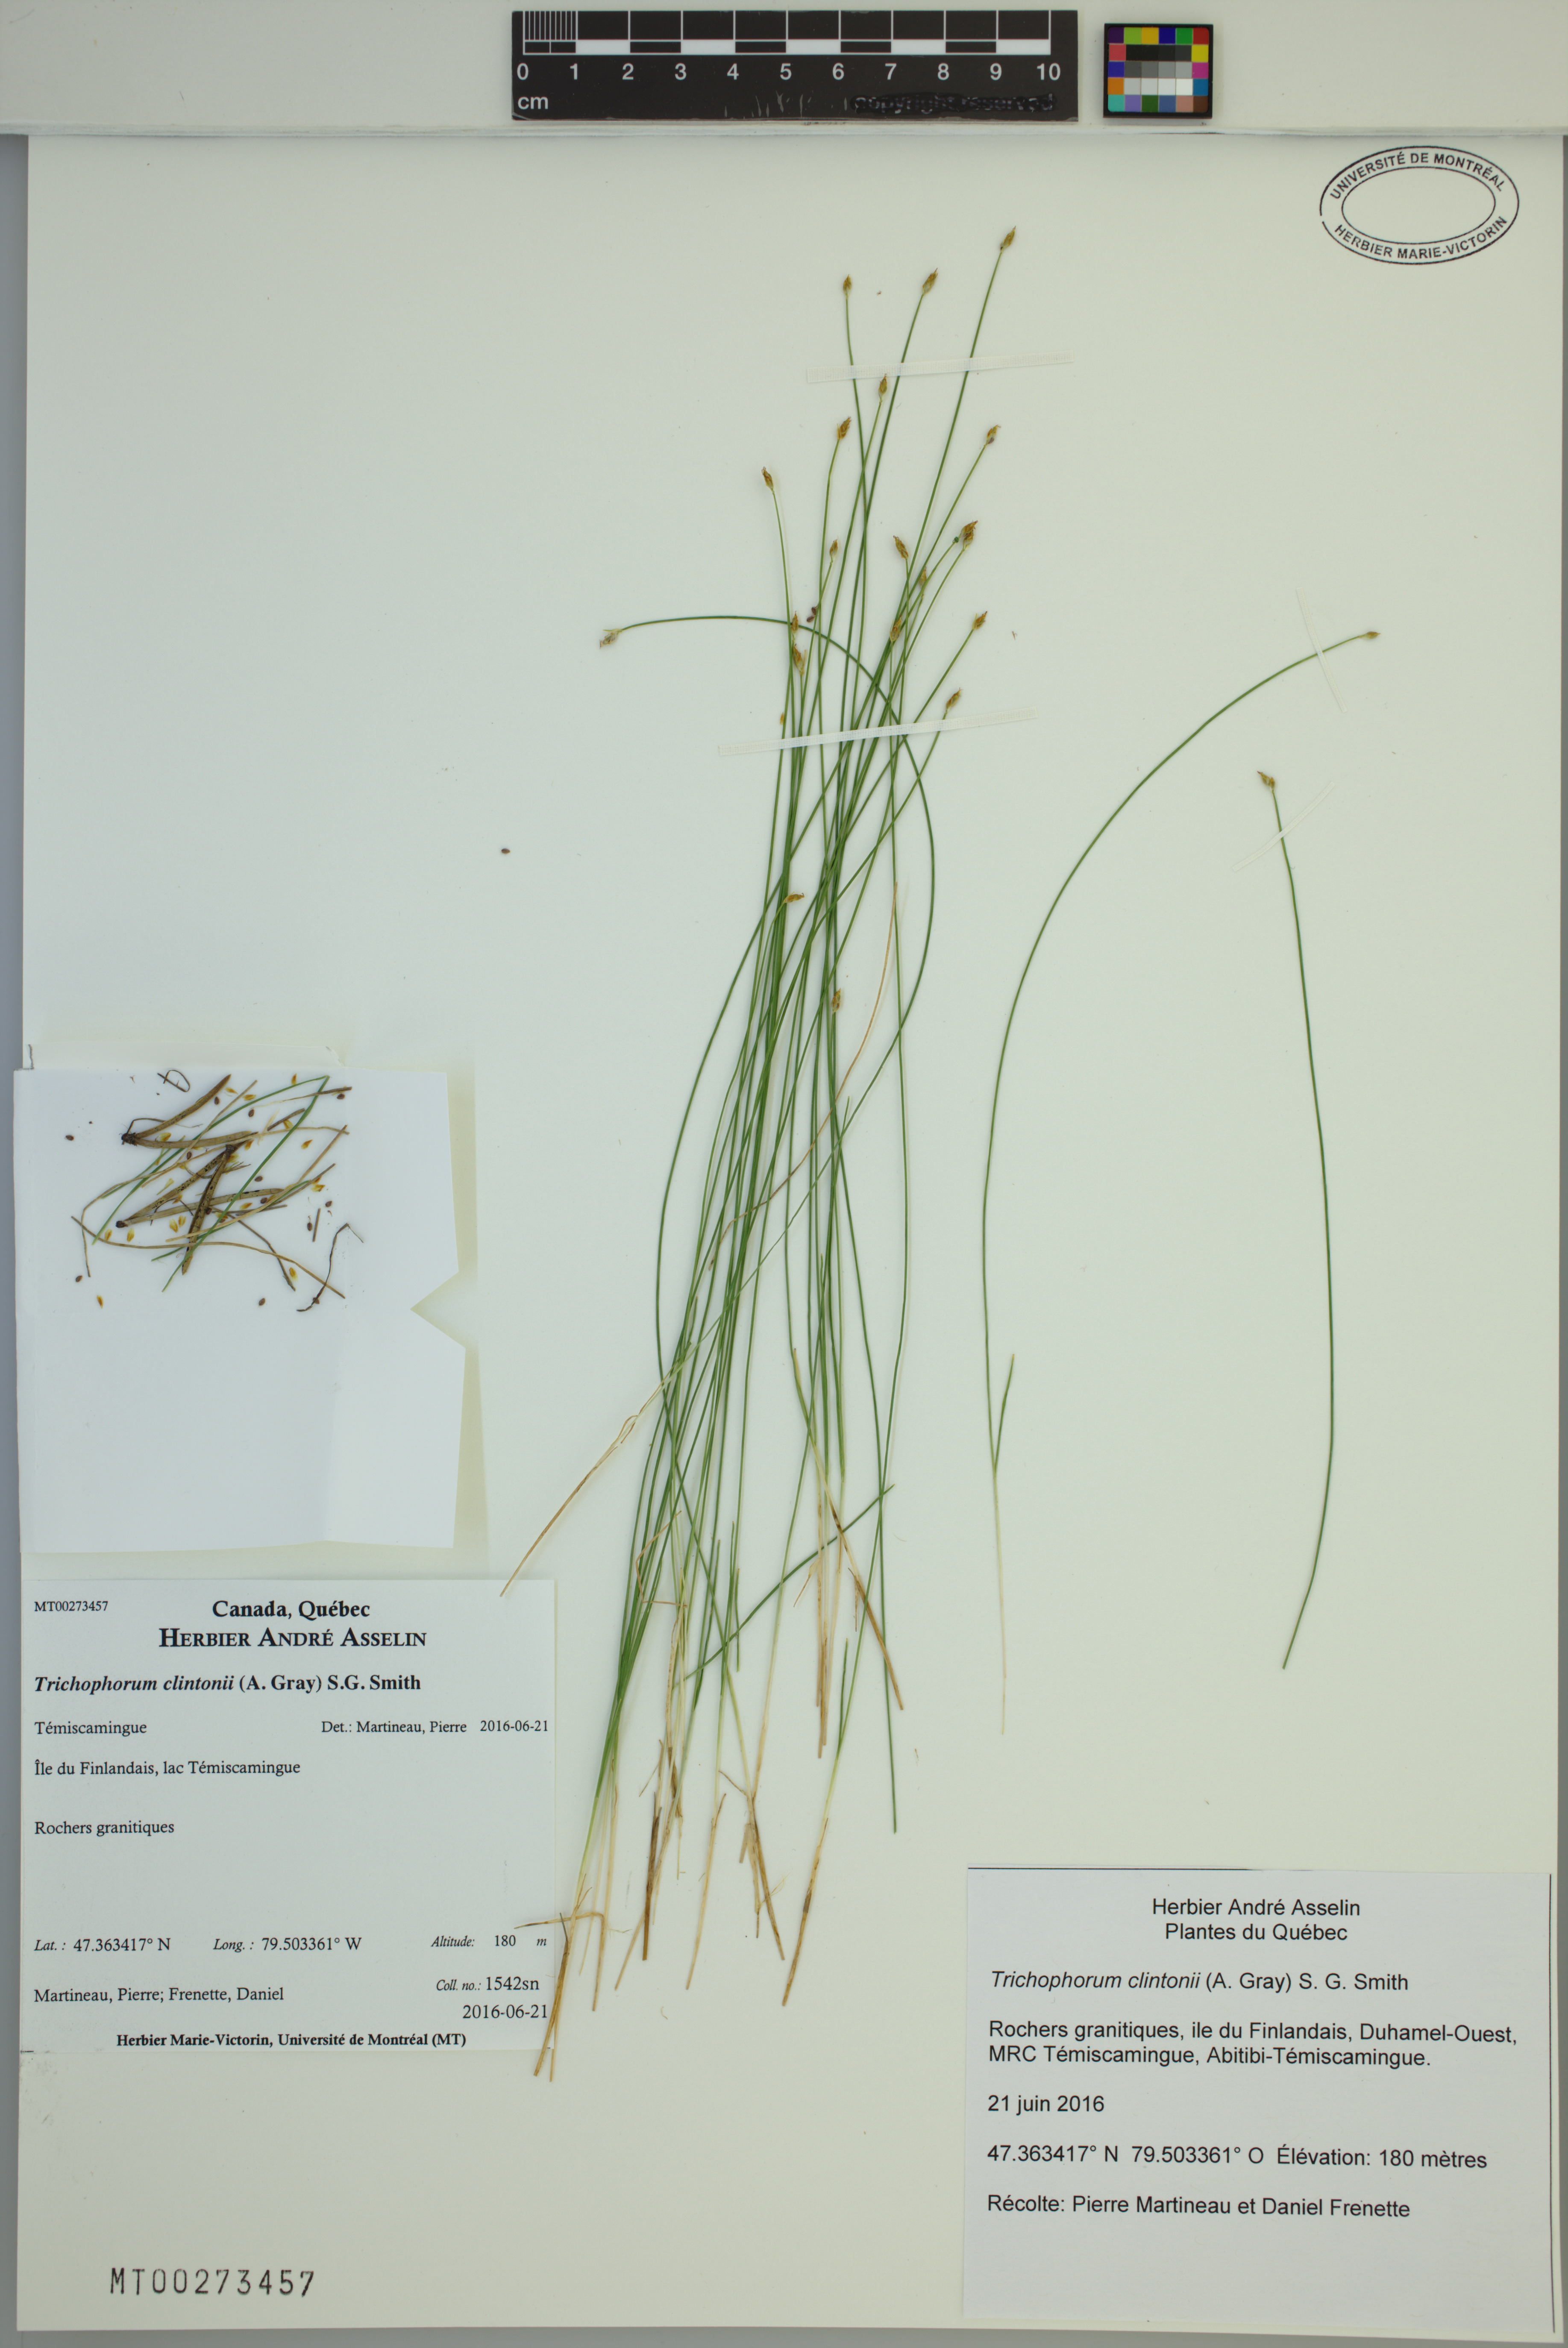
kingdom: Plantae
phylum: Tracheophyta
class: Liliopsida
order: Poales
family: Cyperaceae
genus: Trichophorum
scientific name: Trichophorum clintonii
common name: Clinton's bulrush
